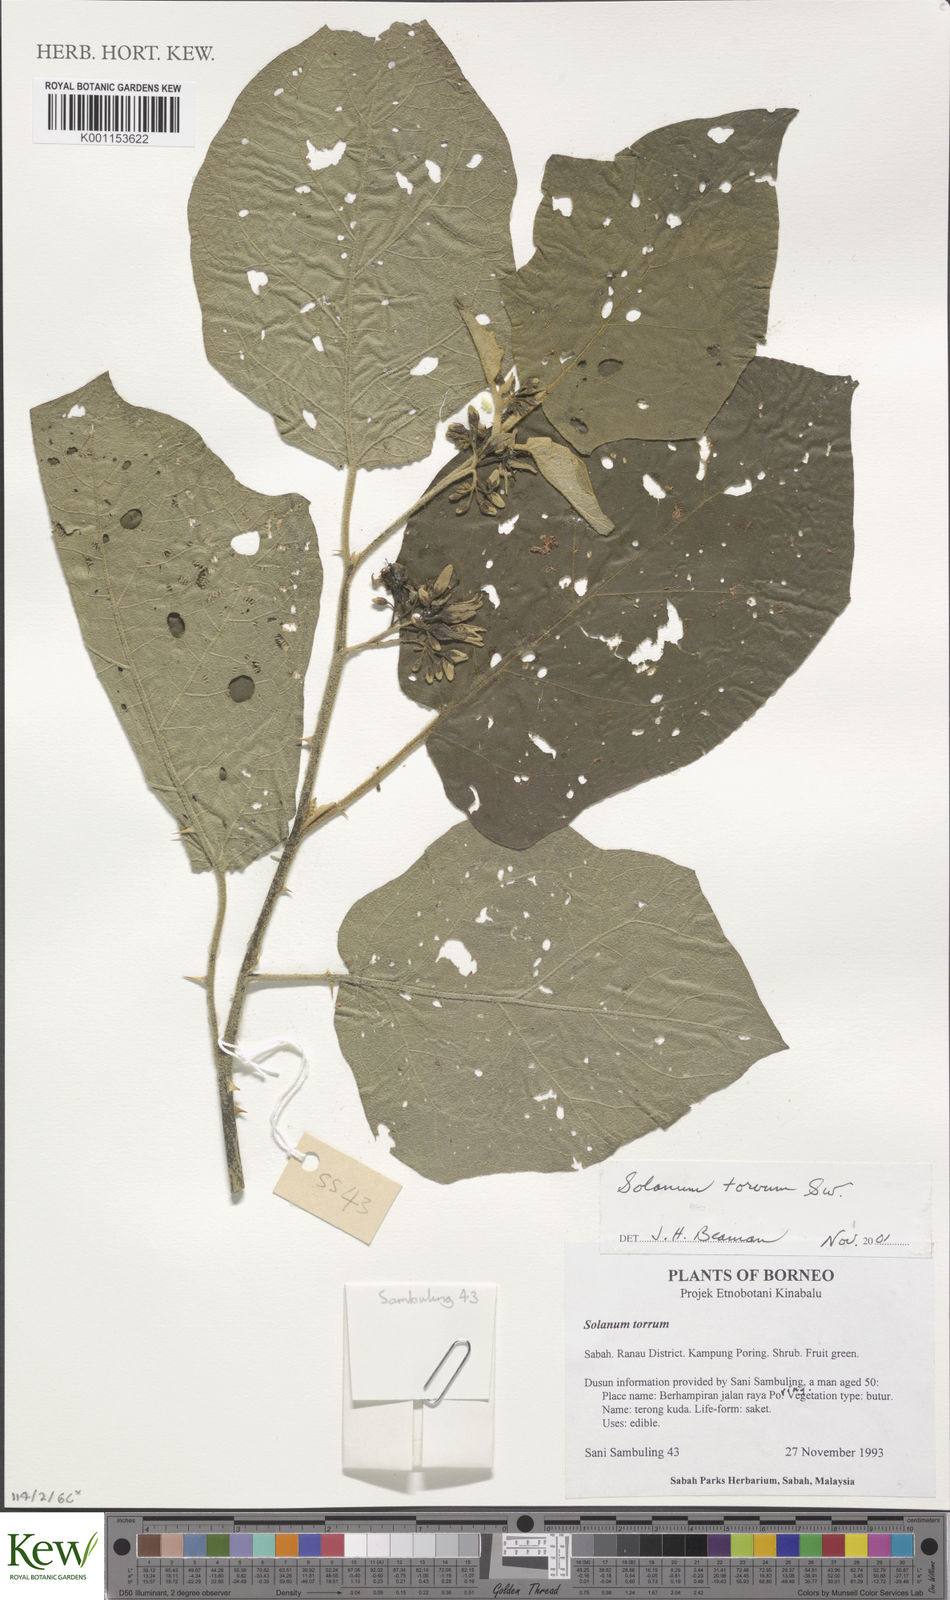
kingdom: Plantae
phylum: Tracheophyta
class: Magnoliopsida
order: Solanales
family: Solanaceae
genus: Solanum
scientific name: Solanum torvum
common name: Turkey berry
